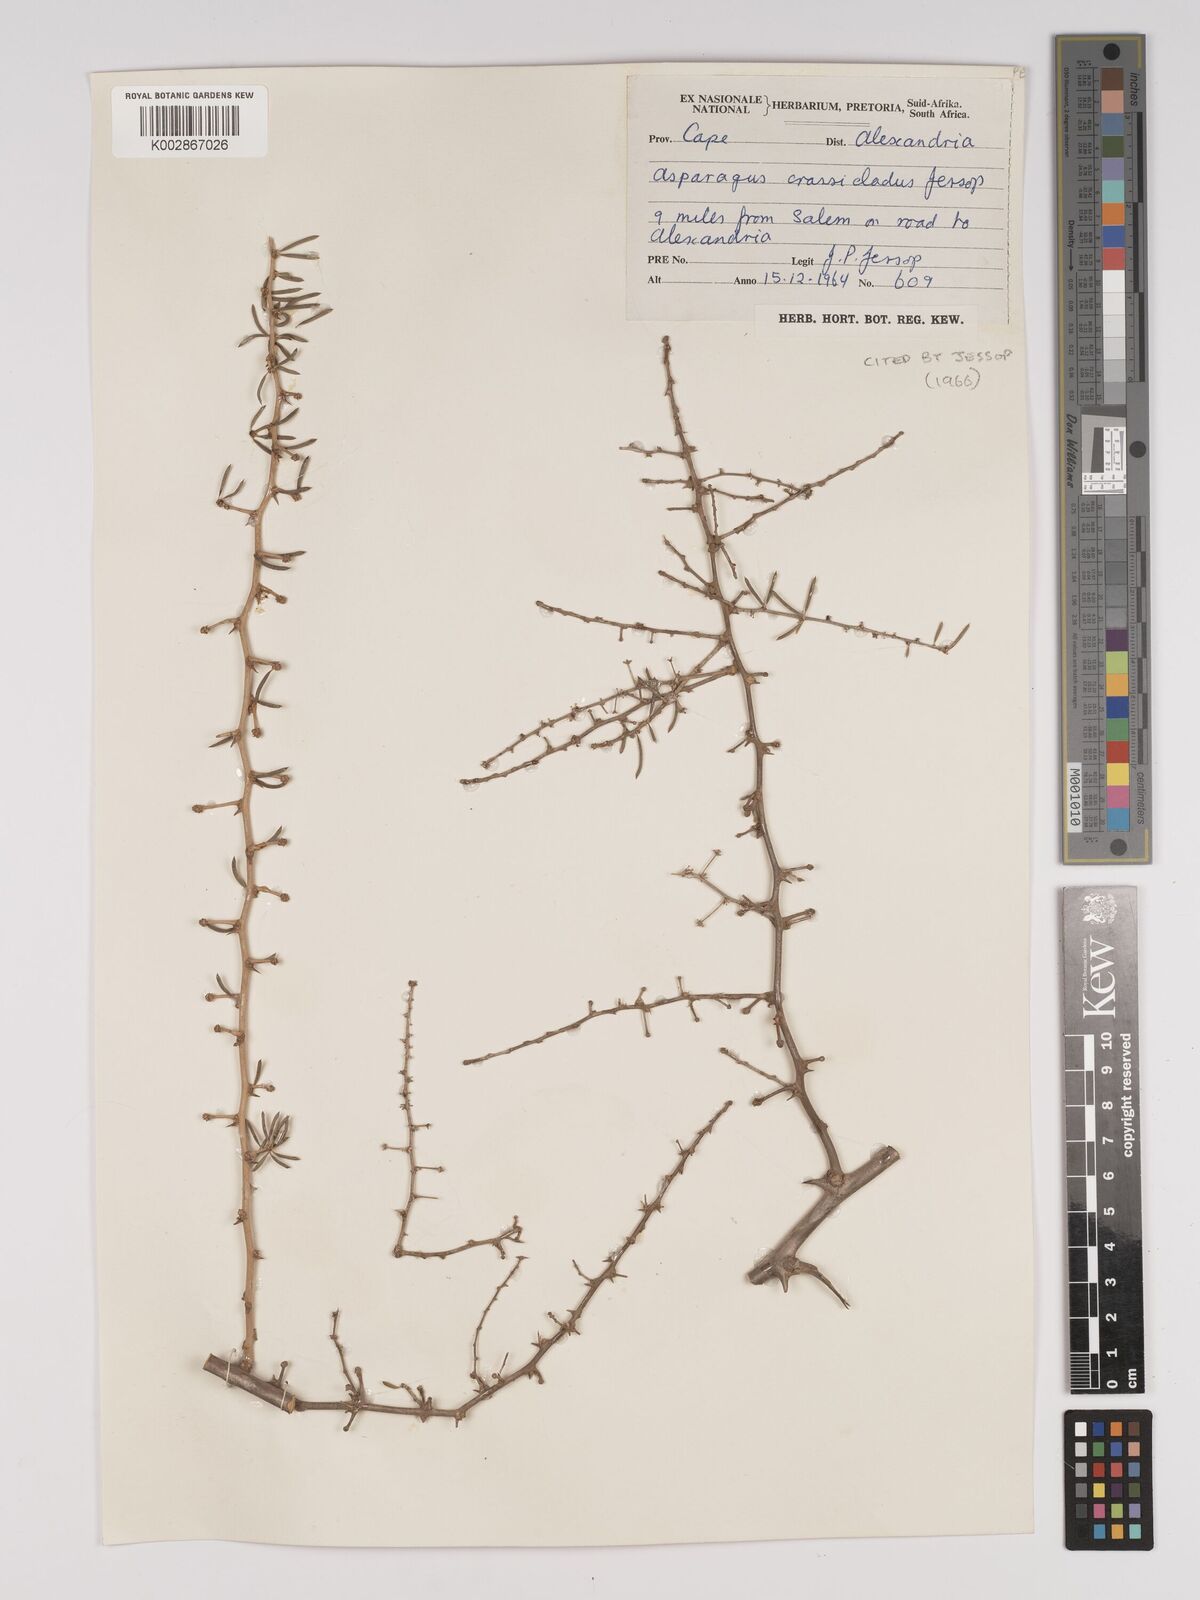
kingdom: Plantae
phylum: Tracheophyta
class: Liliopsida
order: Asparagales
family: Asparagaceae
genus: Asparagus
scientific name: Asparagus crassicladus
